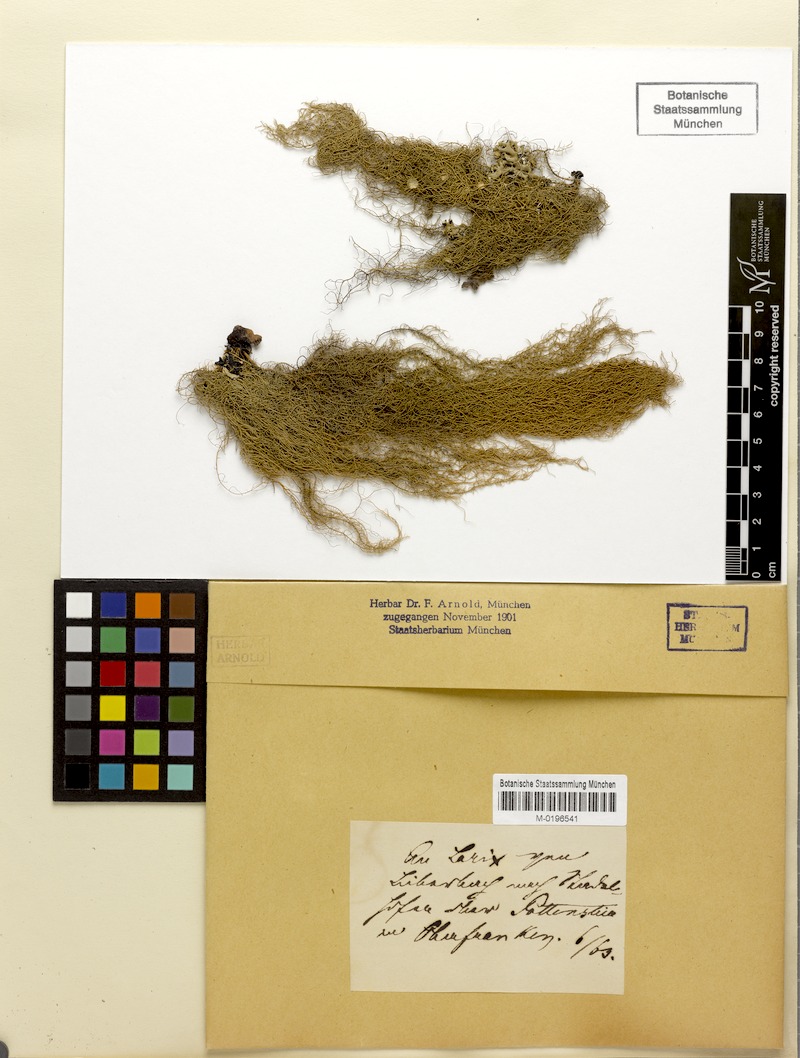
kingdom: Fungi
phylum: Ascomycota
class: Lecanoromycetes
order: Lecanorales
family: Parmeliaceae
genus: Usnea
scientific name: Usnea plicata
